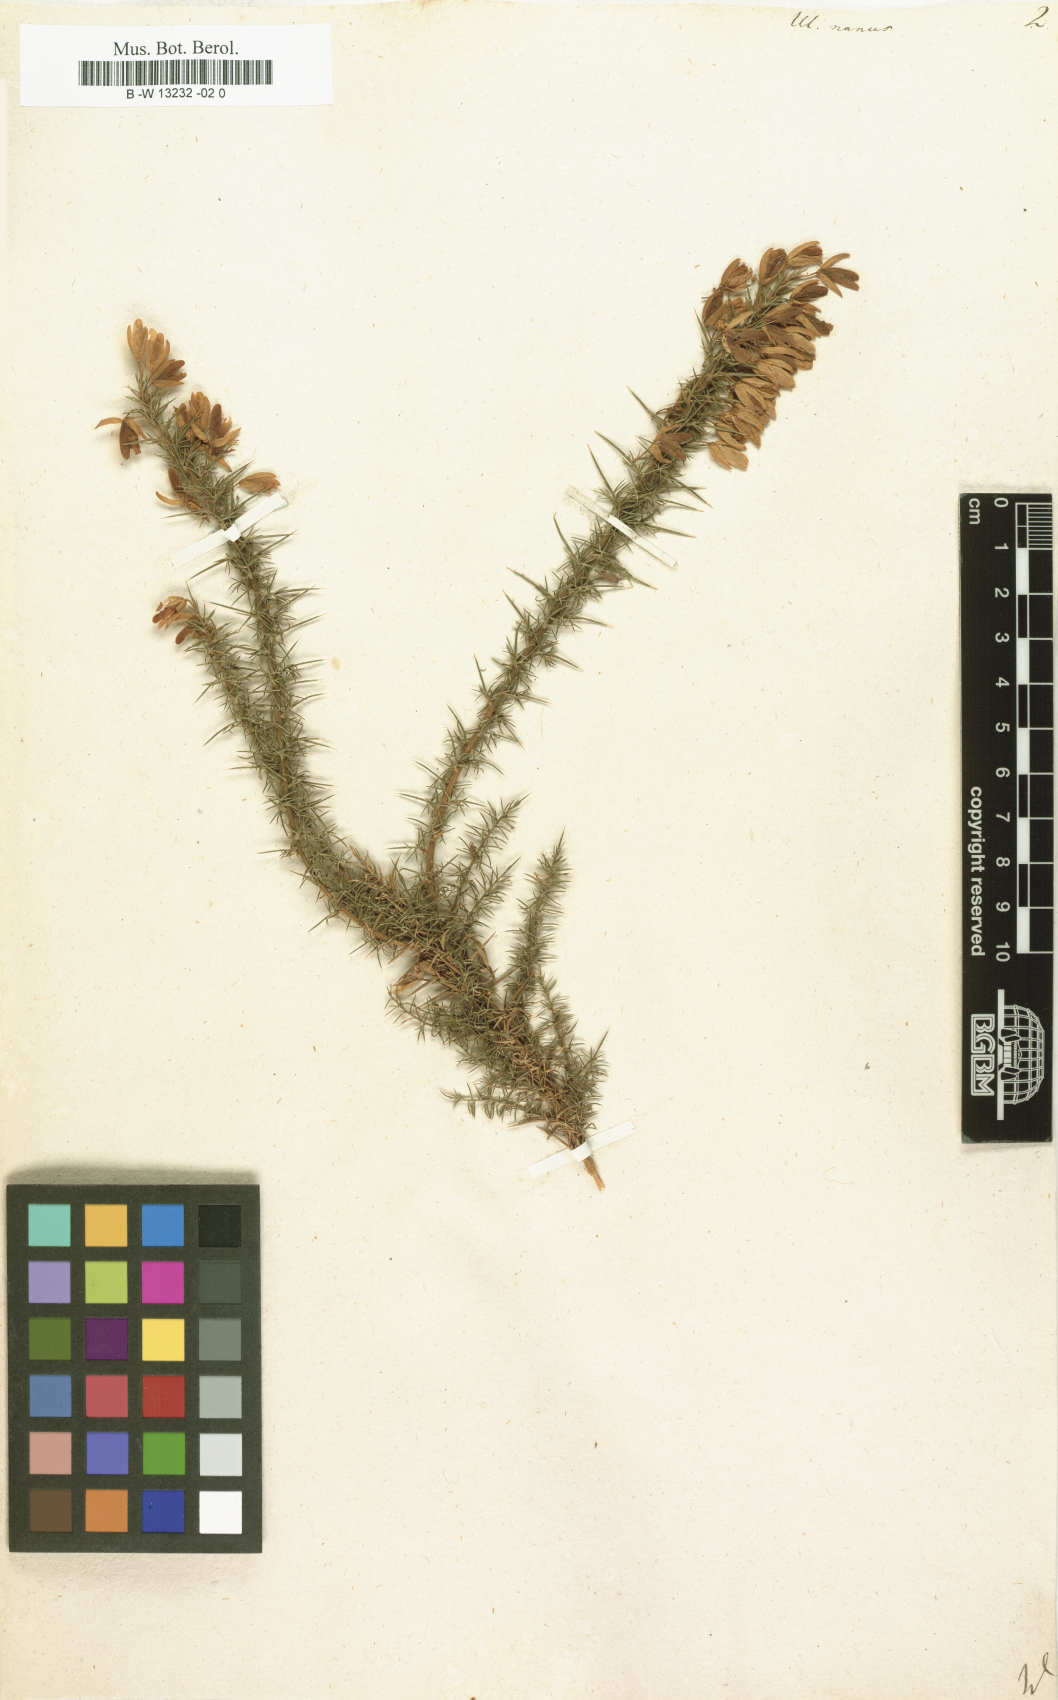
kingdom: Plantae
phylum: Tracheophyta
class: Magnoliopsida
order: Fabales
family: Fabaceae
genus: Ulex
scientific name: Ulex nanus
